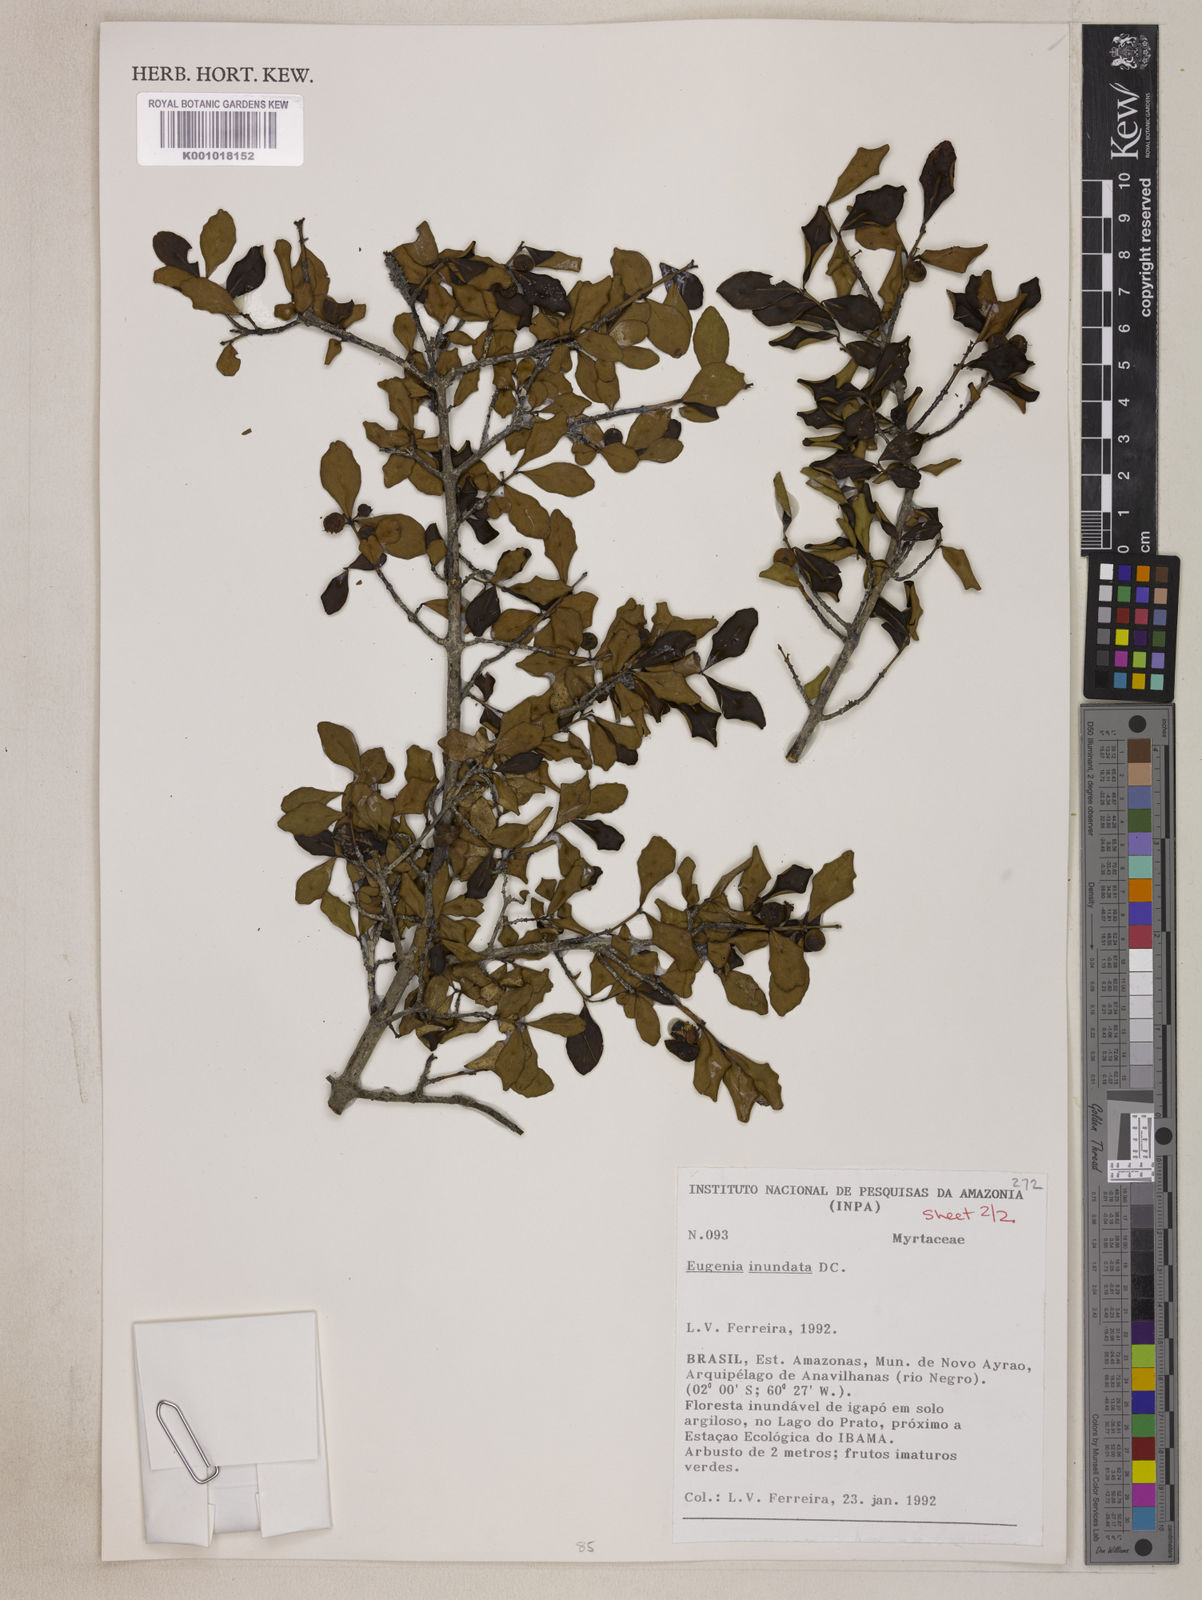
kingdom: Plantae
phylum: Tracheophyta
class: Magnoliopsida
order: Myrtales
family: Myrtaceae
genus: Eugenia
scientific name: Eugenia inundata
